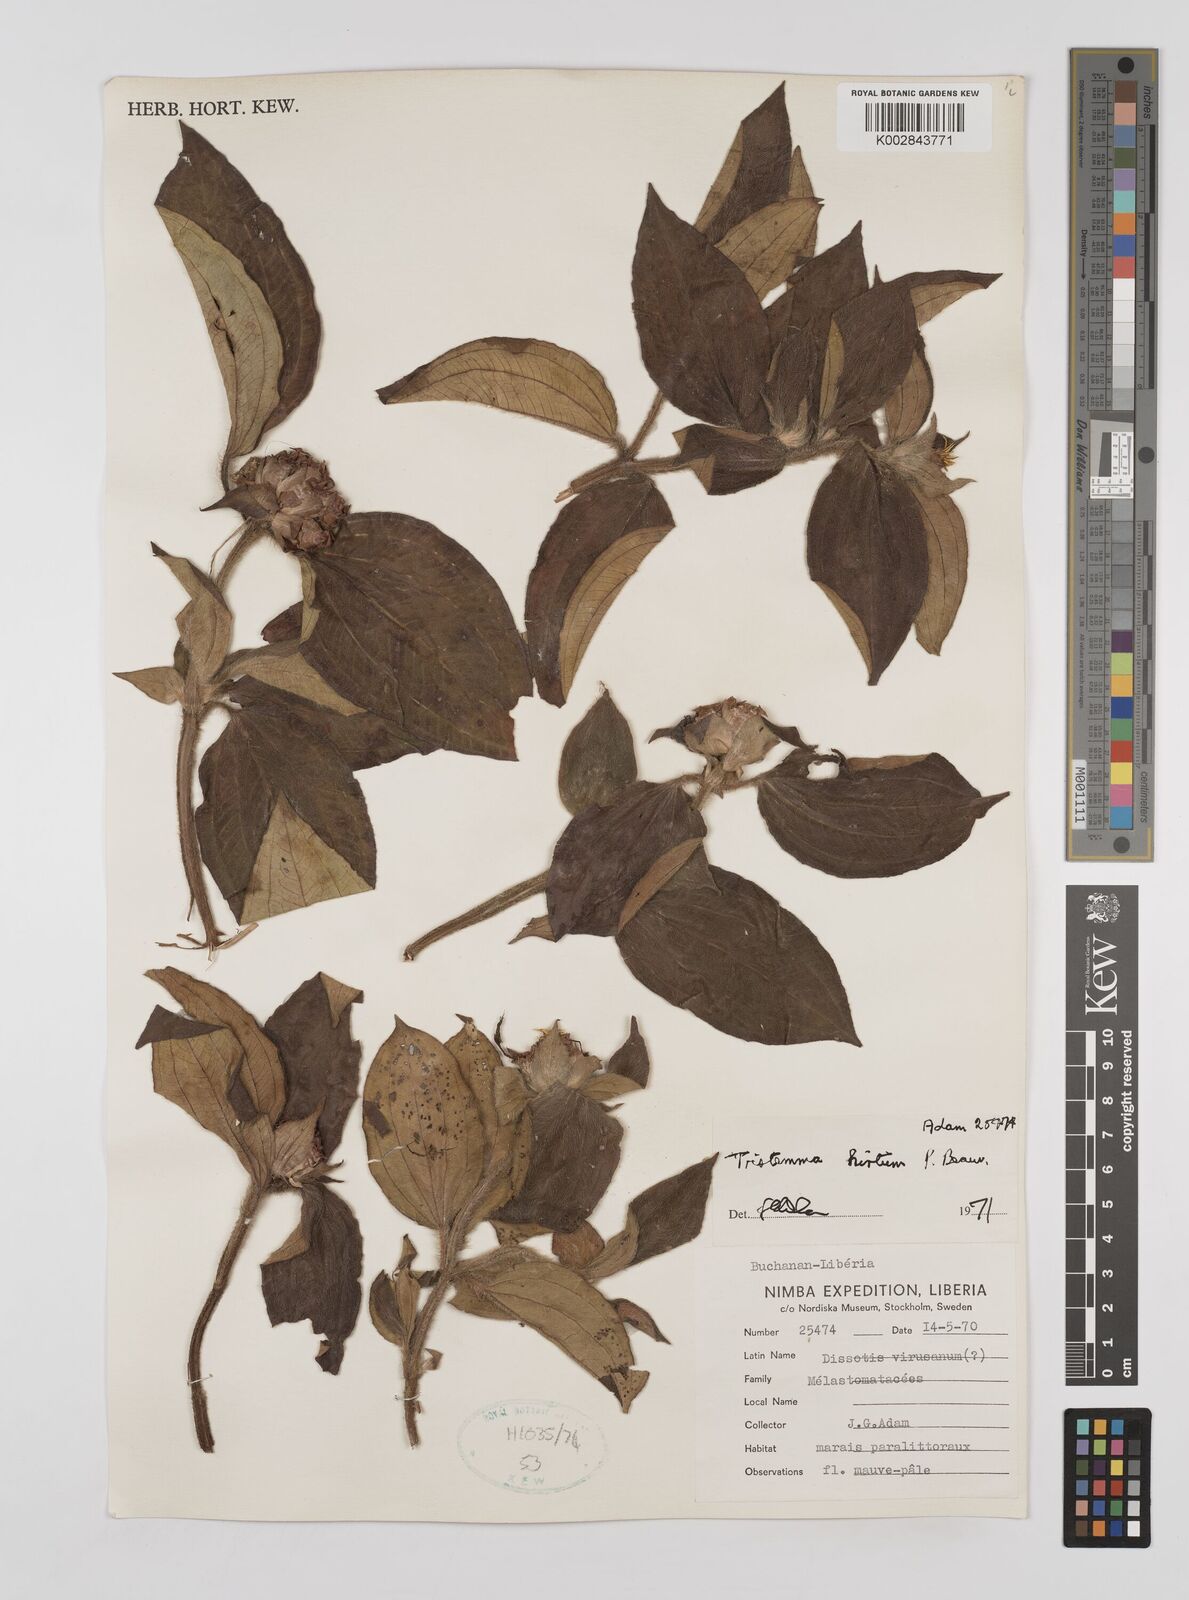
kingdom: Plantae
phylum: Tracheophyta
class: Magnoliopsida
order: Myrtales
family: Melastomataceae
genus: Tristemma
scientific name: Tristemma hirtum
